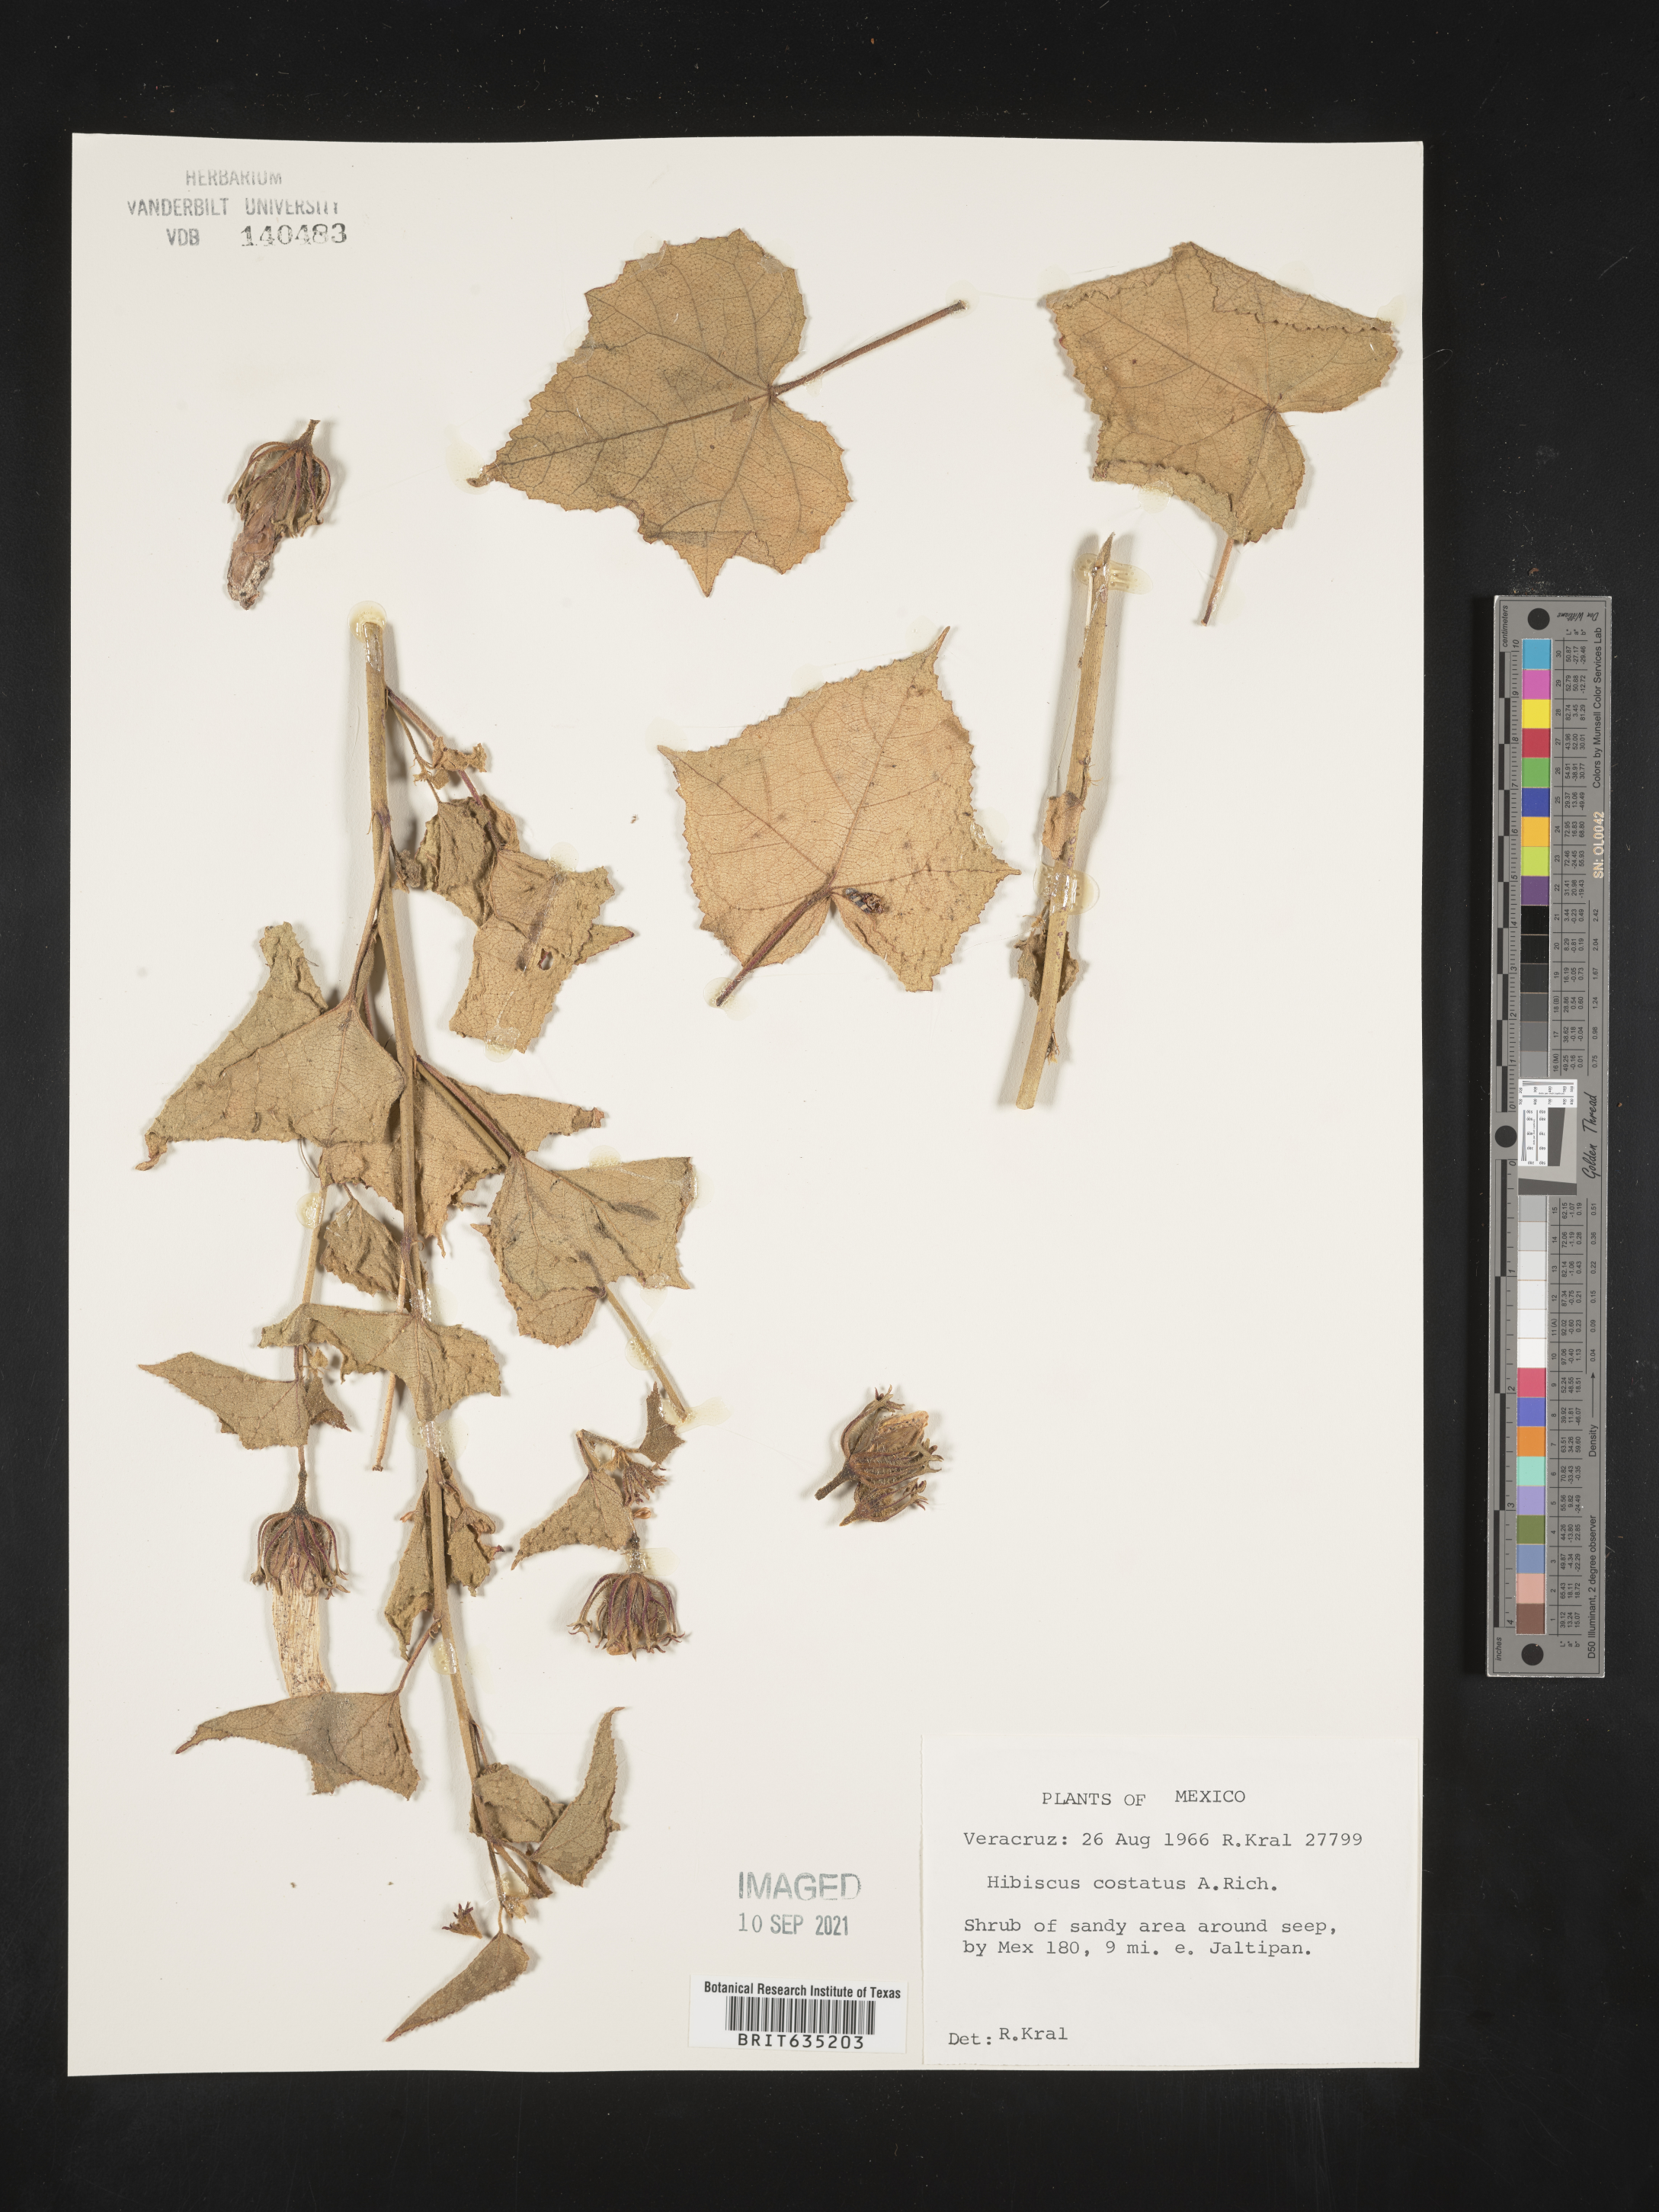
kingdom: Plantae
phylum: Tracheophyta
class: Magnoliopsida
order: Malvales
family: Malvaceae
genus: Hibiscus
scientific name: Hibiscus
